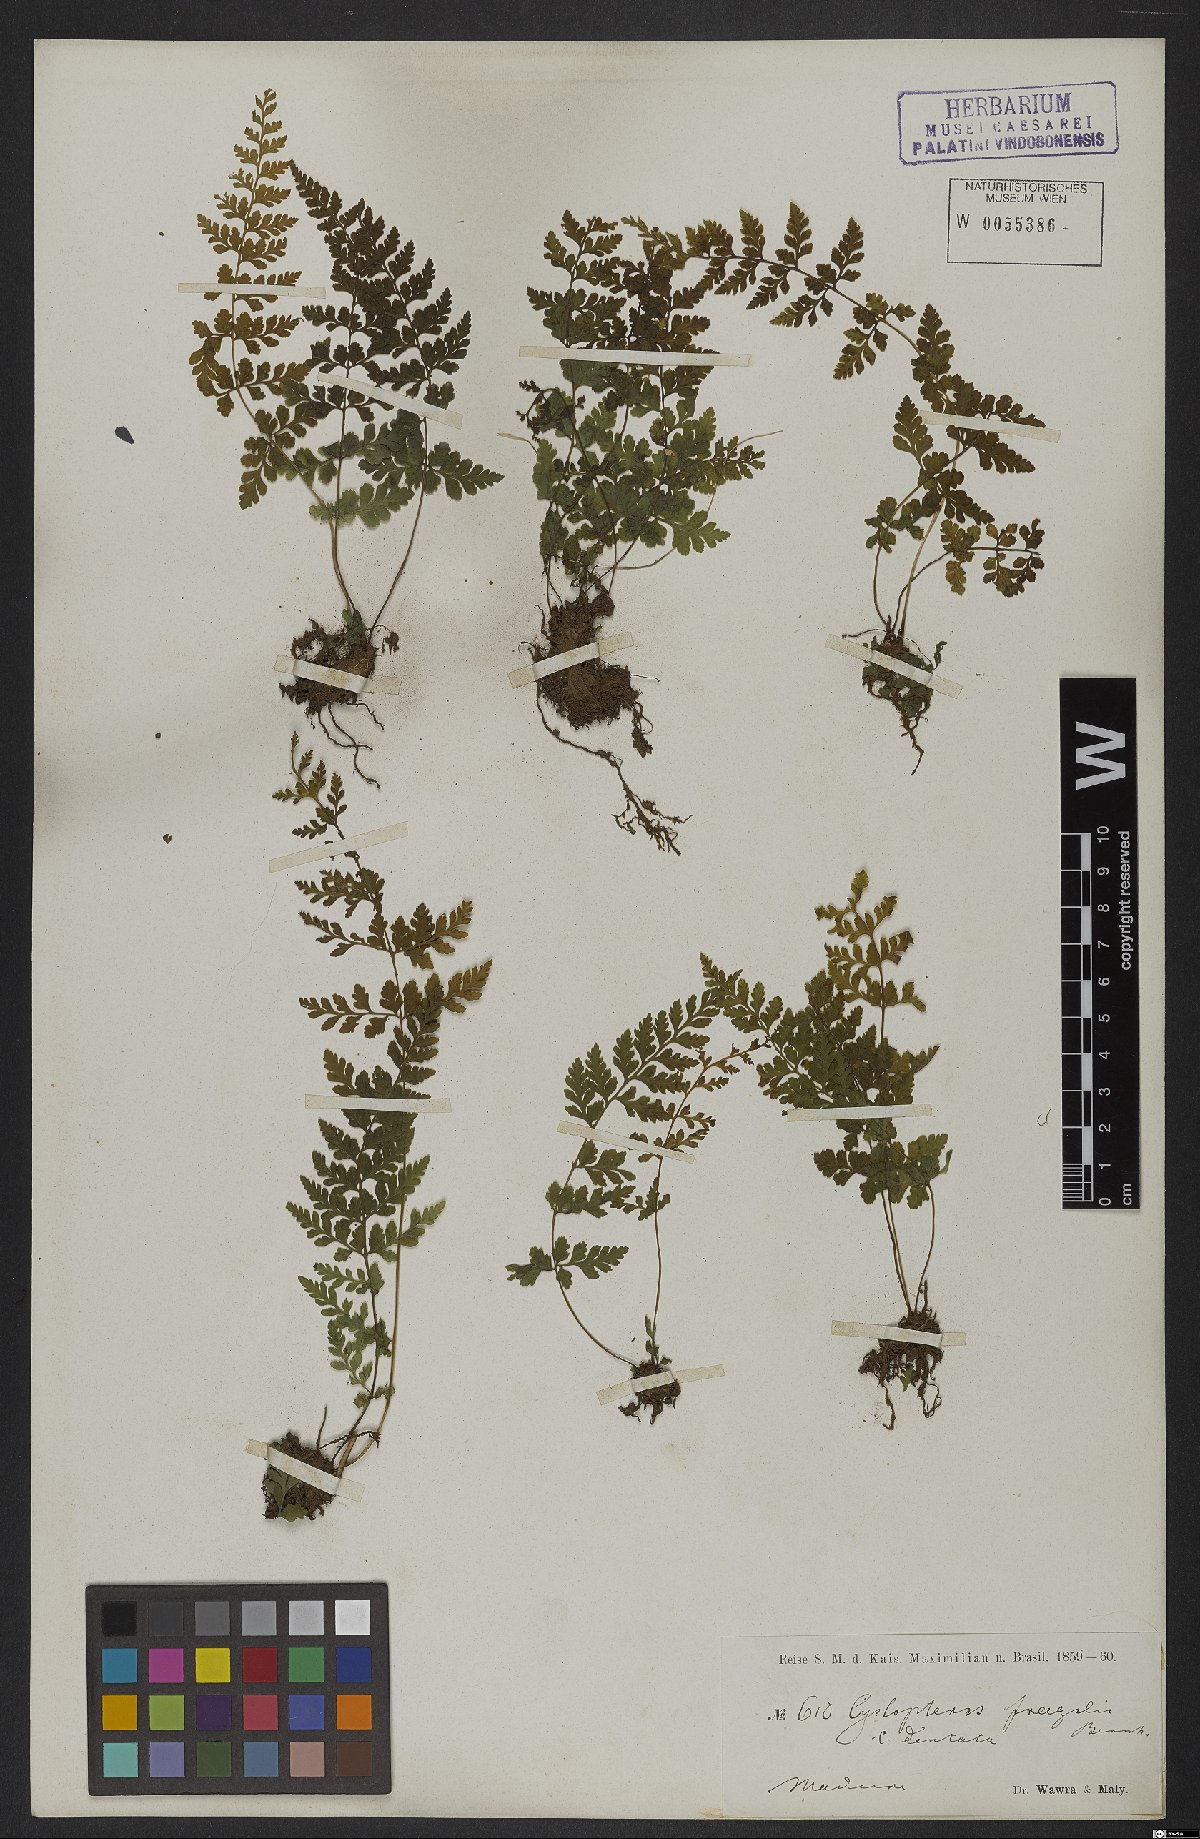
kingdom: Plantae
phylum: Tracheophyta
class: Polypodiopsida
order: Polypodiales
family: Cystopteridaceae
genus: Cystopteris
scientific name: Cystopteris fragilis
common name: Brittle bladder fern
